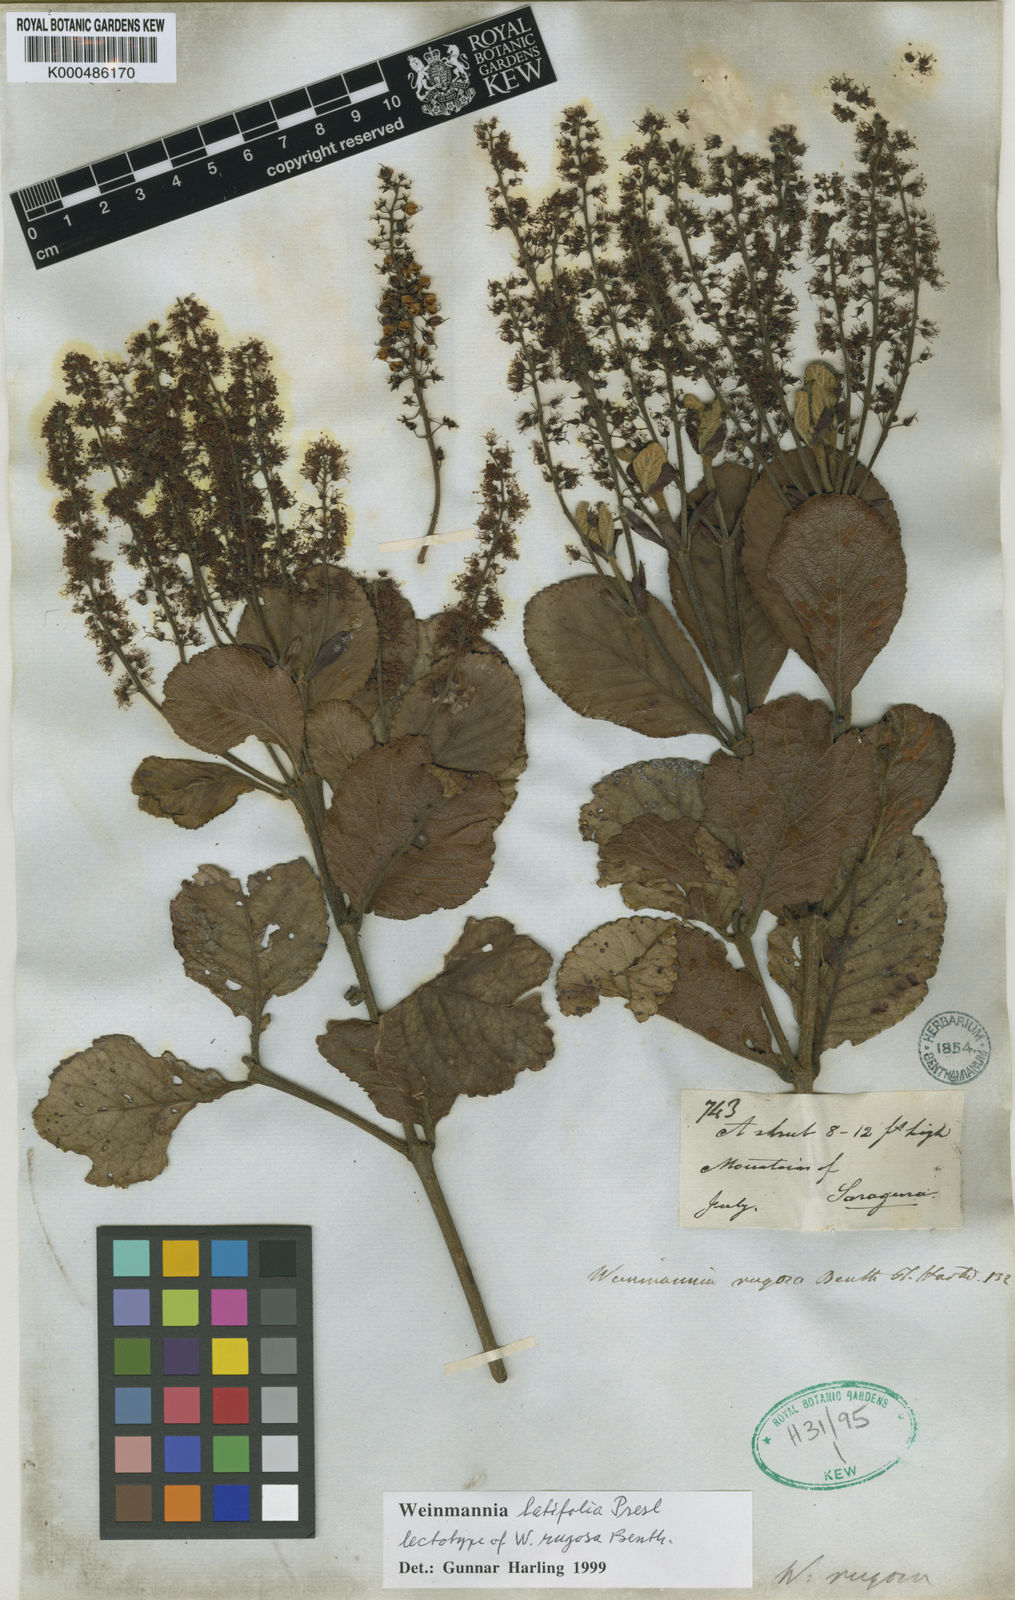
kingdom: Plantae
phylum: Tracheophyta
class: Magnoliopsida
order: Oxalidales
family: Cunoniaceae
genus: Weinmannia
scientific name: Weinmannia latifolia
